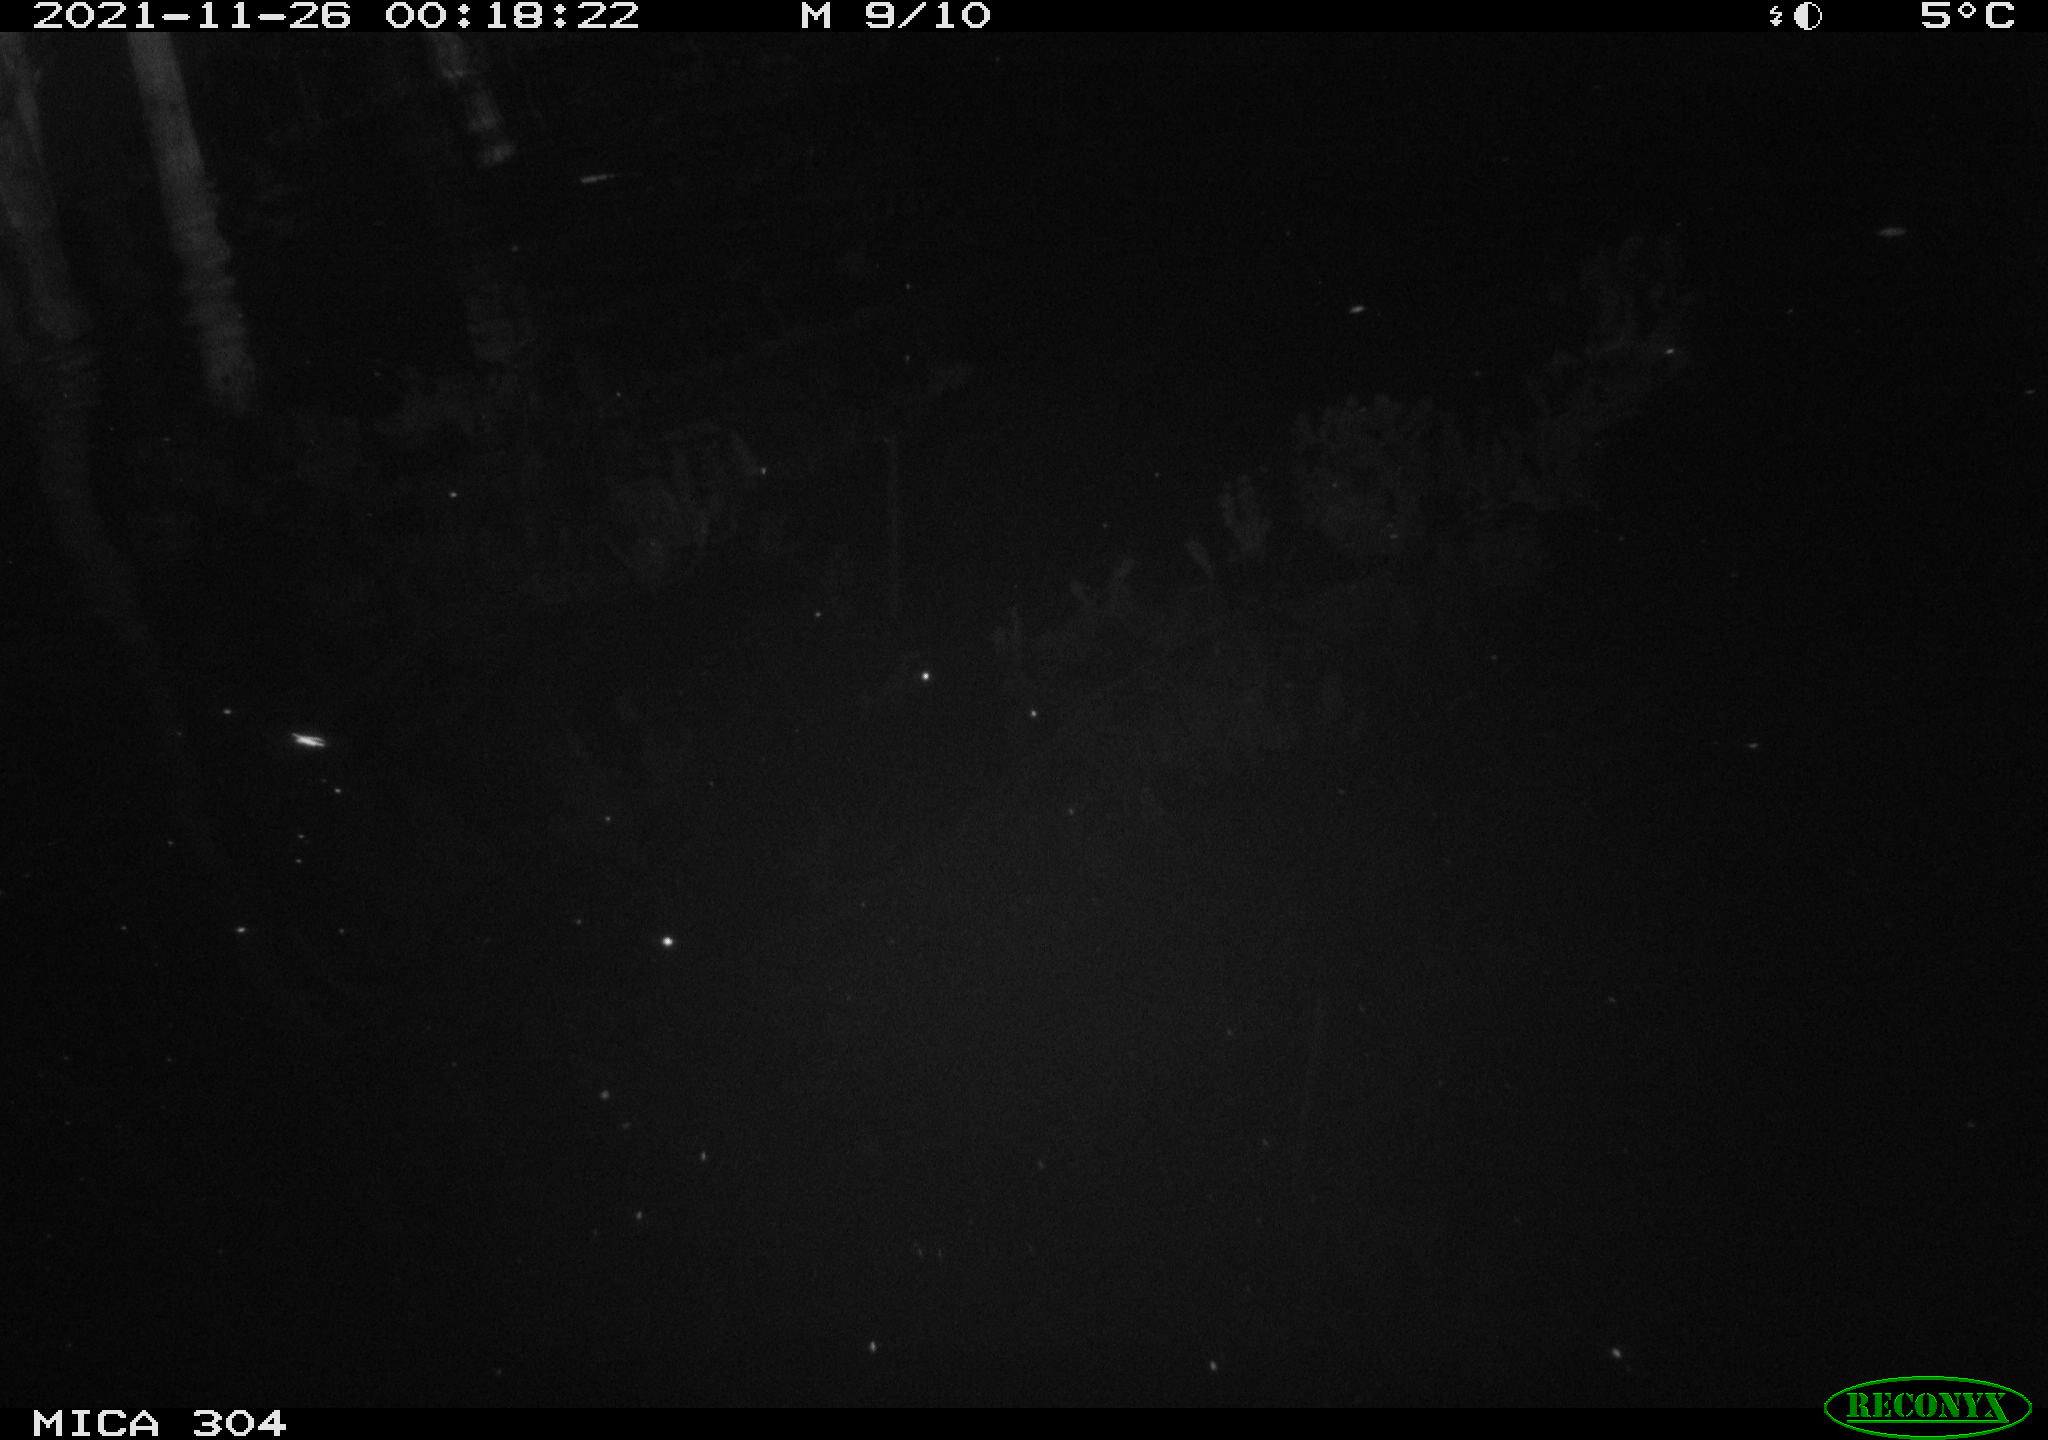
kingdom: Animalia
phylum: Chordata
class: Mammalia
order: Rodentia
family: Muridae
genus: Rattus
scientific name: Rattus norvegicus
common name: Brown rat
